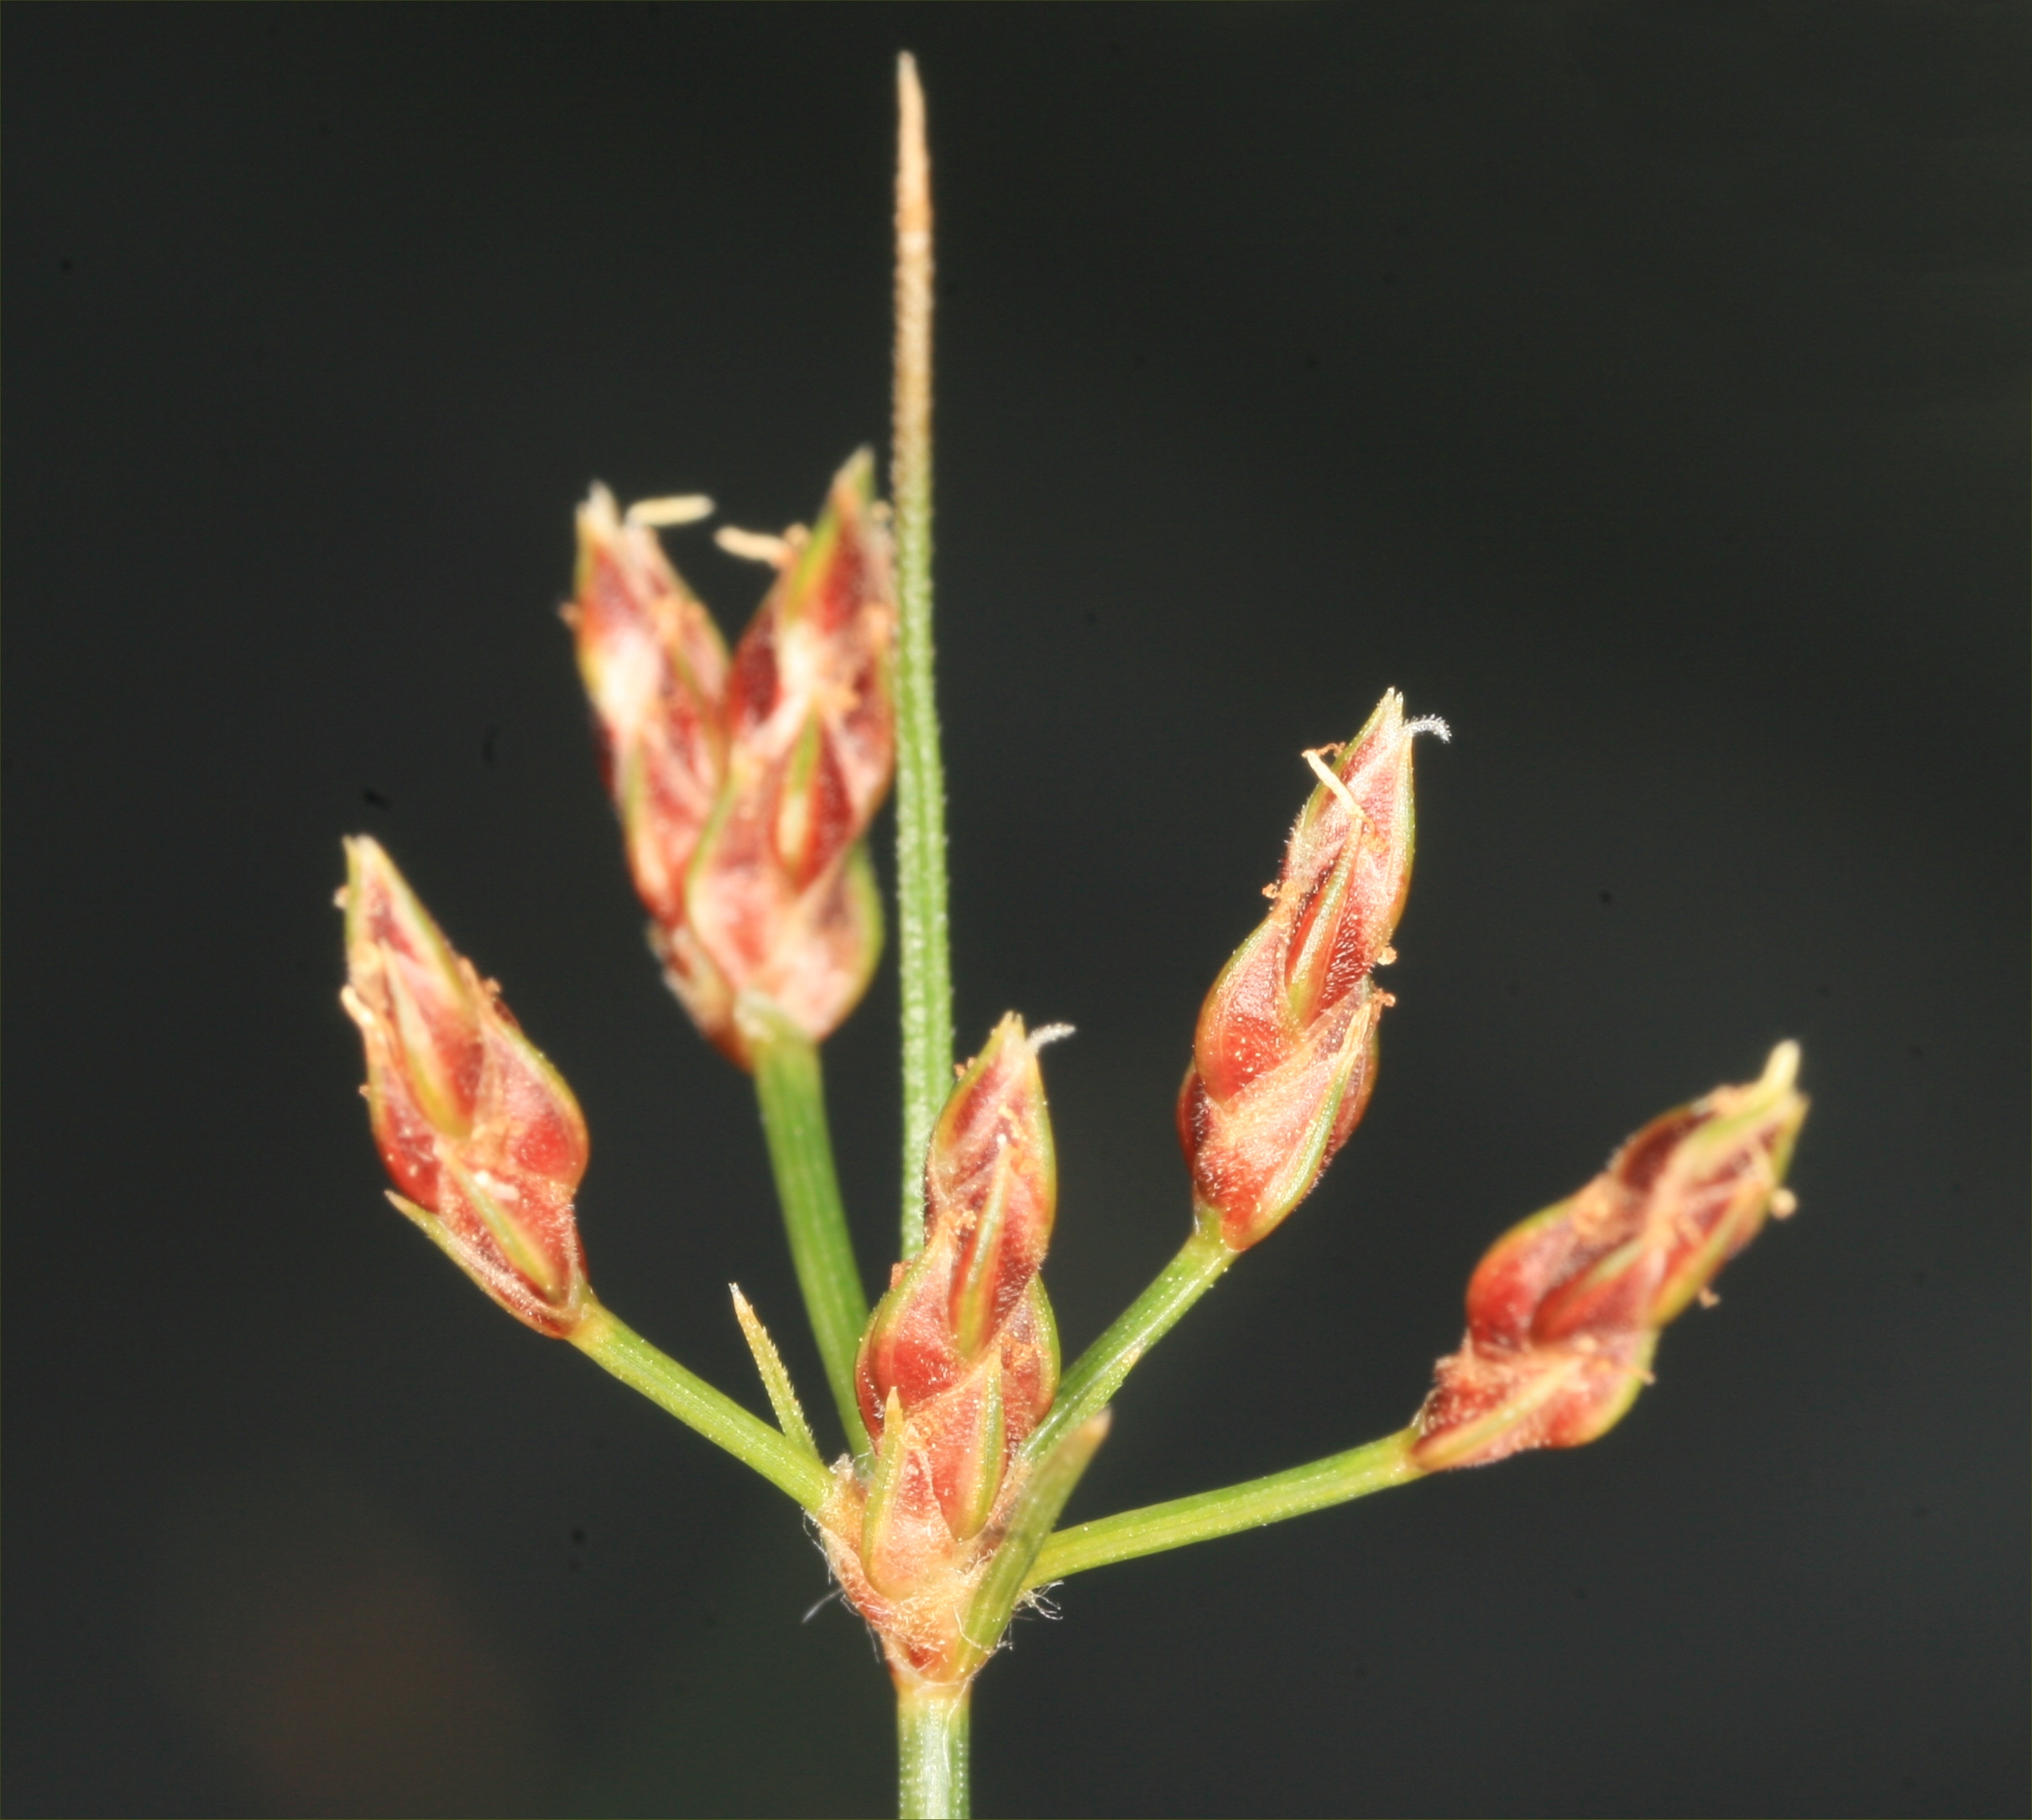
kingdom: Plantae
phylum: Tracheophyta
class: Liliopsida
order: Poales
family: Cyperaceae
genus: Fimbristylis
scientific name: Fimbristylis cinnamometorum
